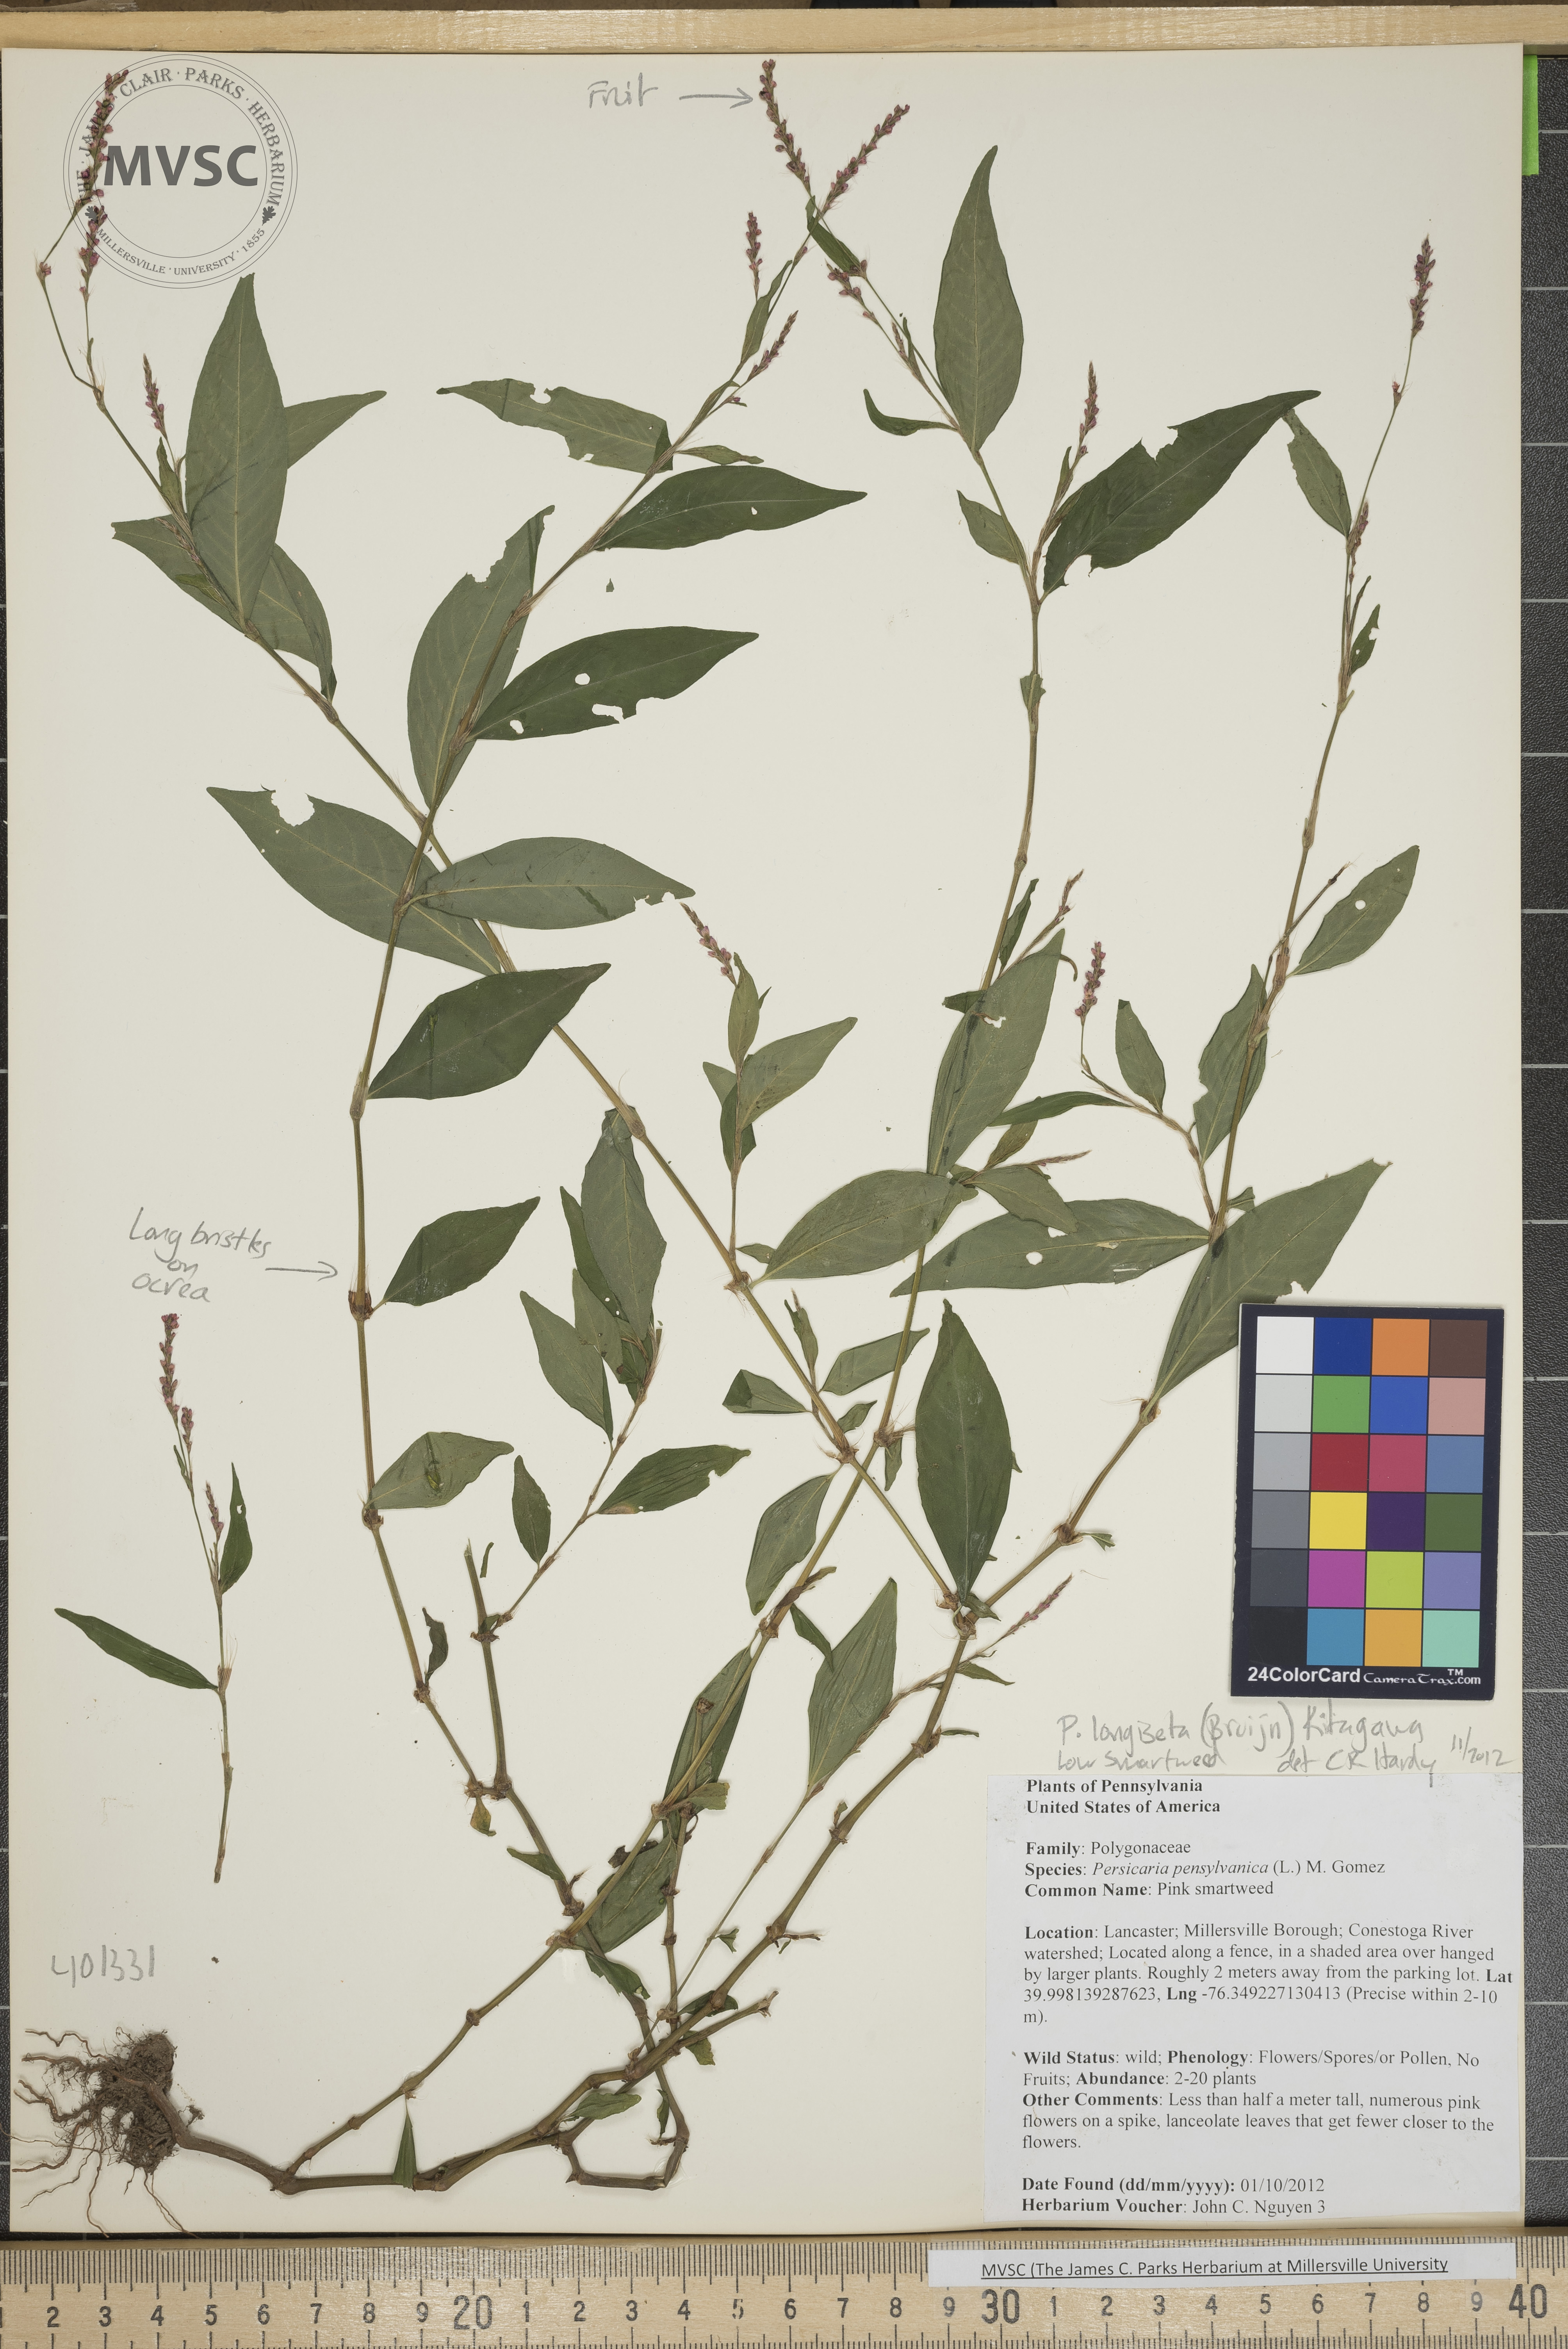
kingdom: Plantae
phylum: Tracheophyta
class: Magnoliopsida
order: Caryophyllales
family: Polygonaceae
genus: Persicaria
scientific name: Persicaria longiseta
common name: Low smartweed
